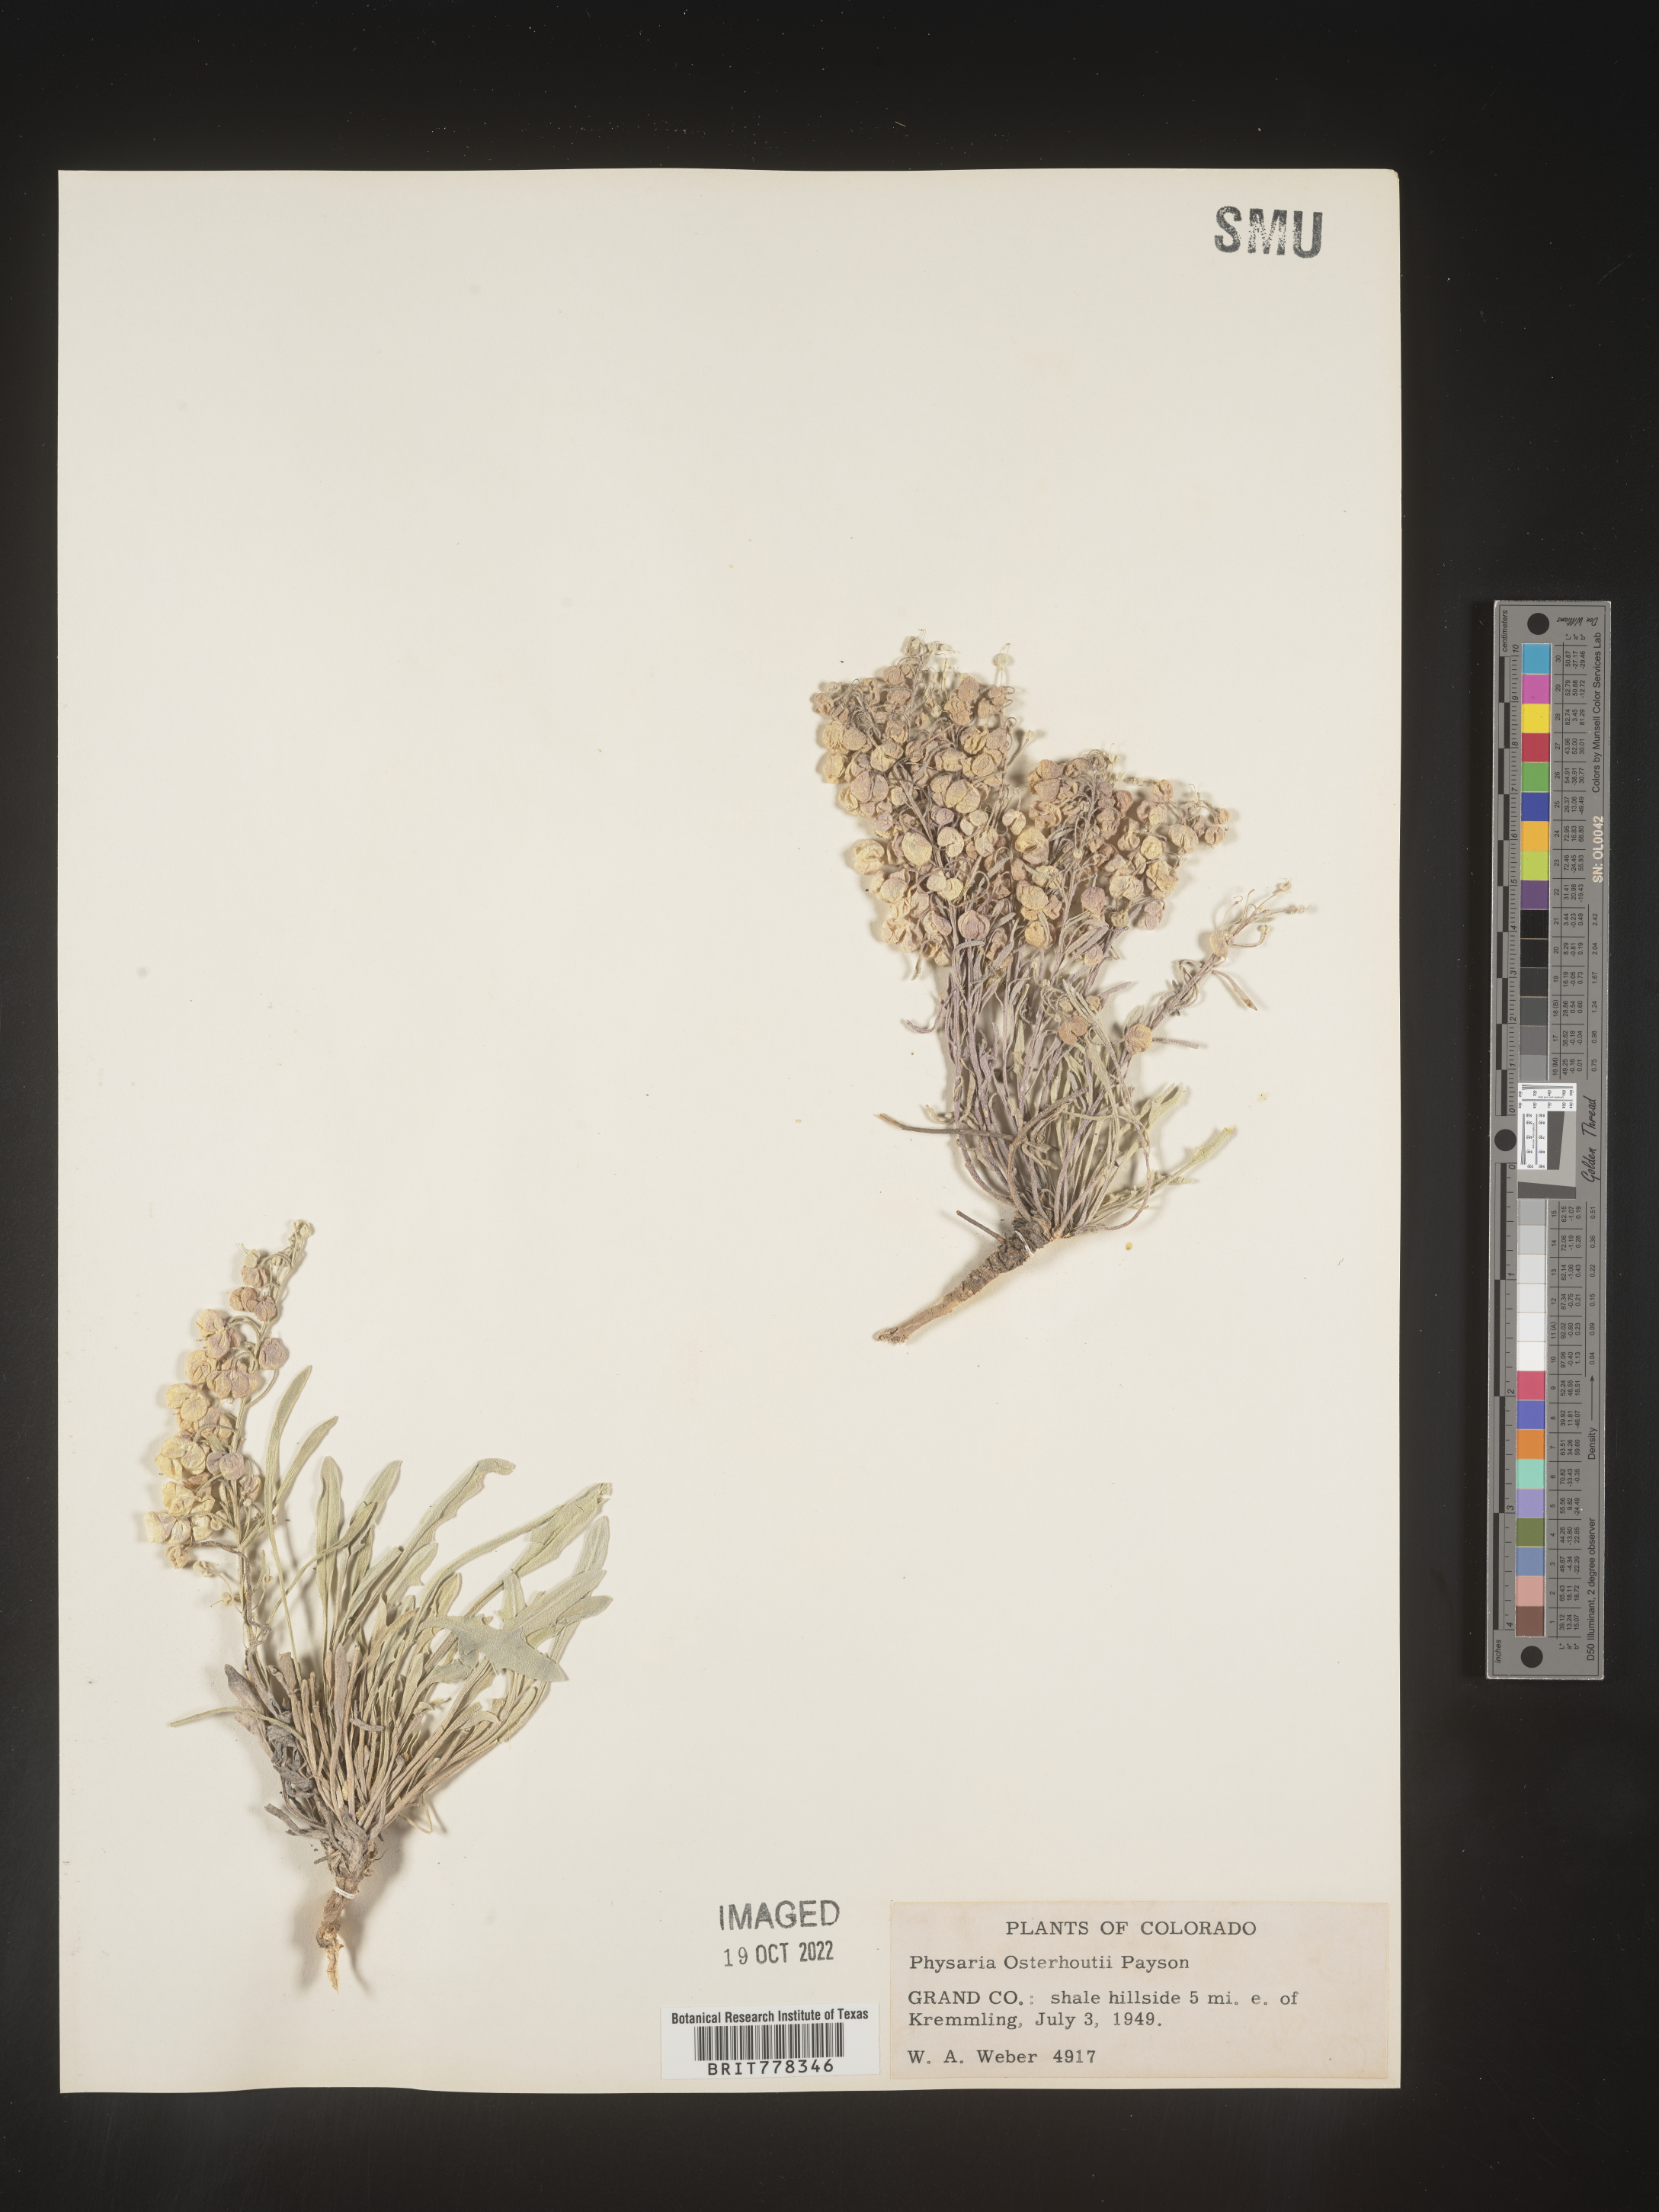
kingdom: Plantae
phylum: Tracheophyta
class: Magnoliopsida
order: Brassicales
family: Brassicaceae
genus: Physaria
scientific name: Physaria
